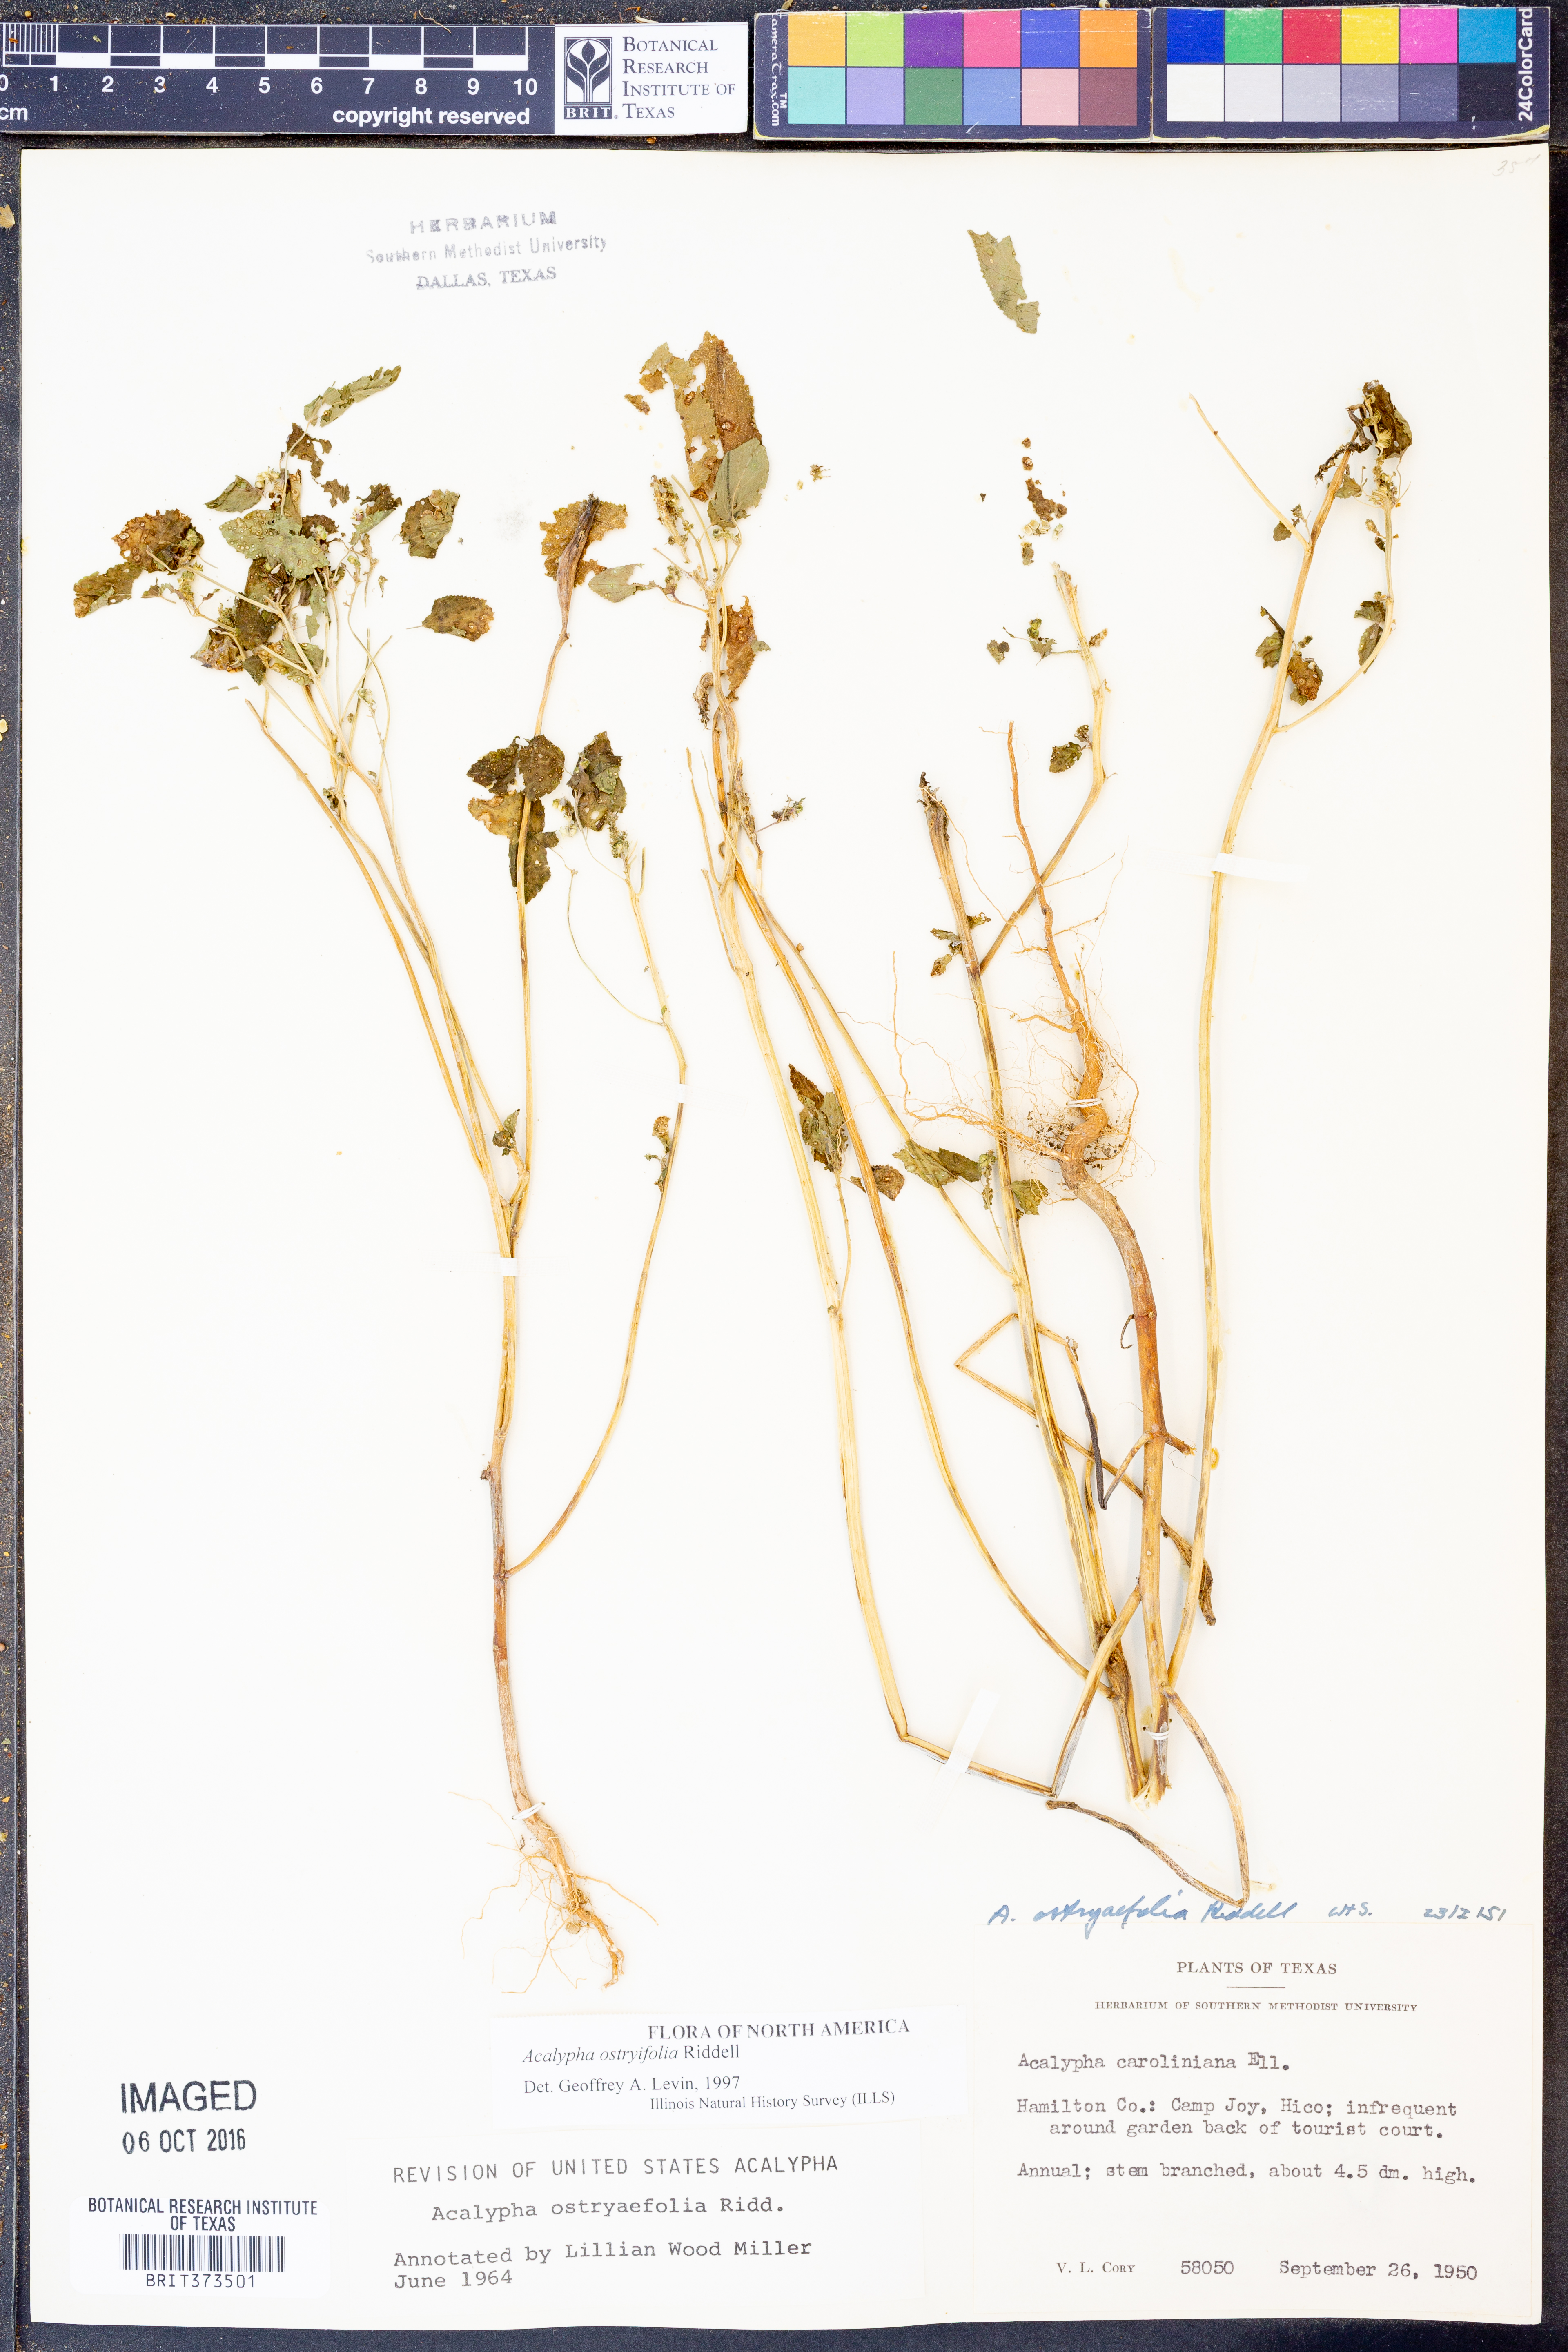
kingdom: Plantae
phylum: Tracheophyta
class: Magnoliopsida
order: Malpighiales
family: Euphorbiaceae
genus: Acalypha
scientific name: Acalypha persimilis
